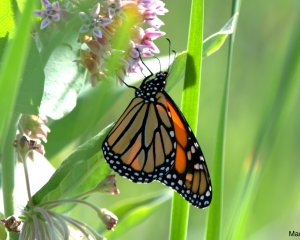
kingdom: Animalia
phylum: Arthropoda
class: Insecta
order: Lepidoptera
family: Nymphalidae
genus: Danaus
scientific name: Danaus plexippus
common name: Monarch
